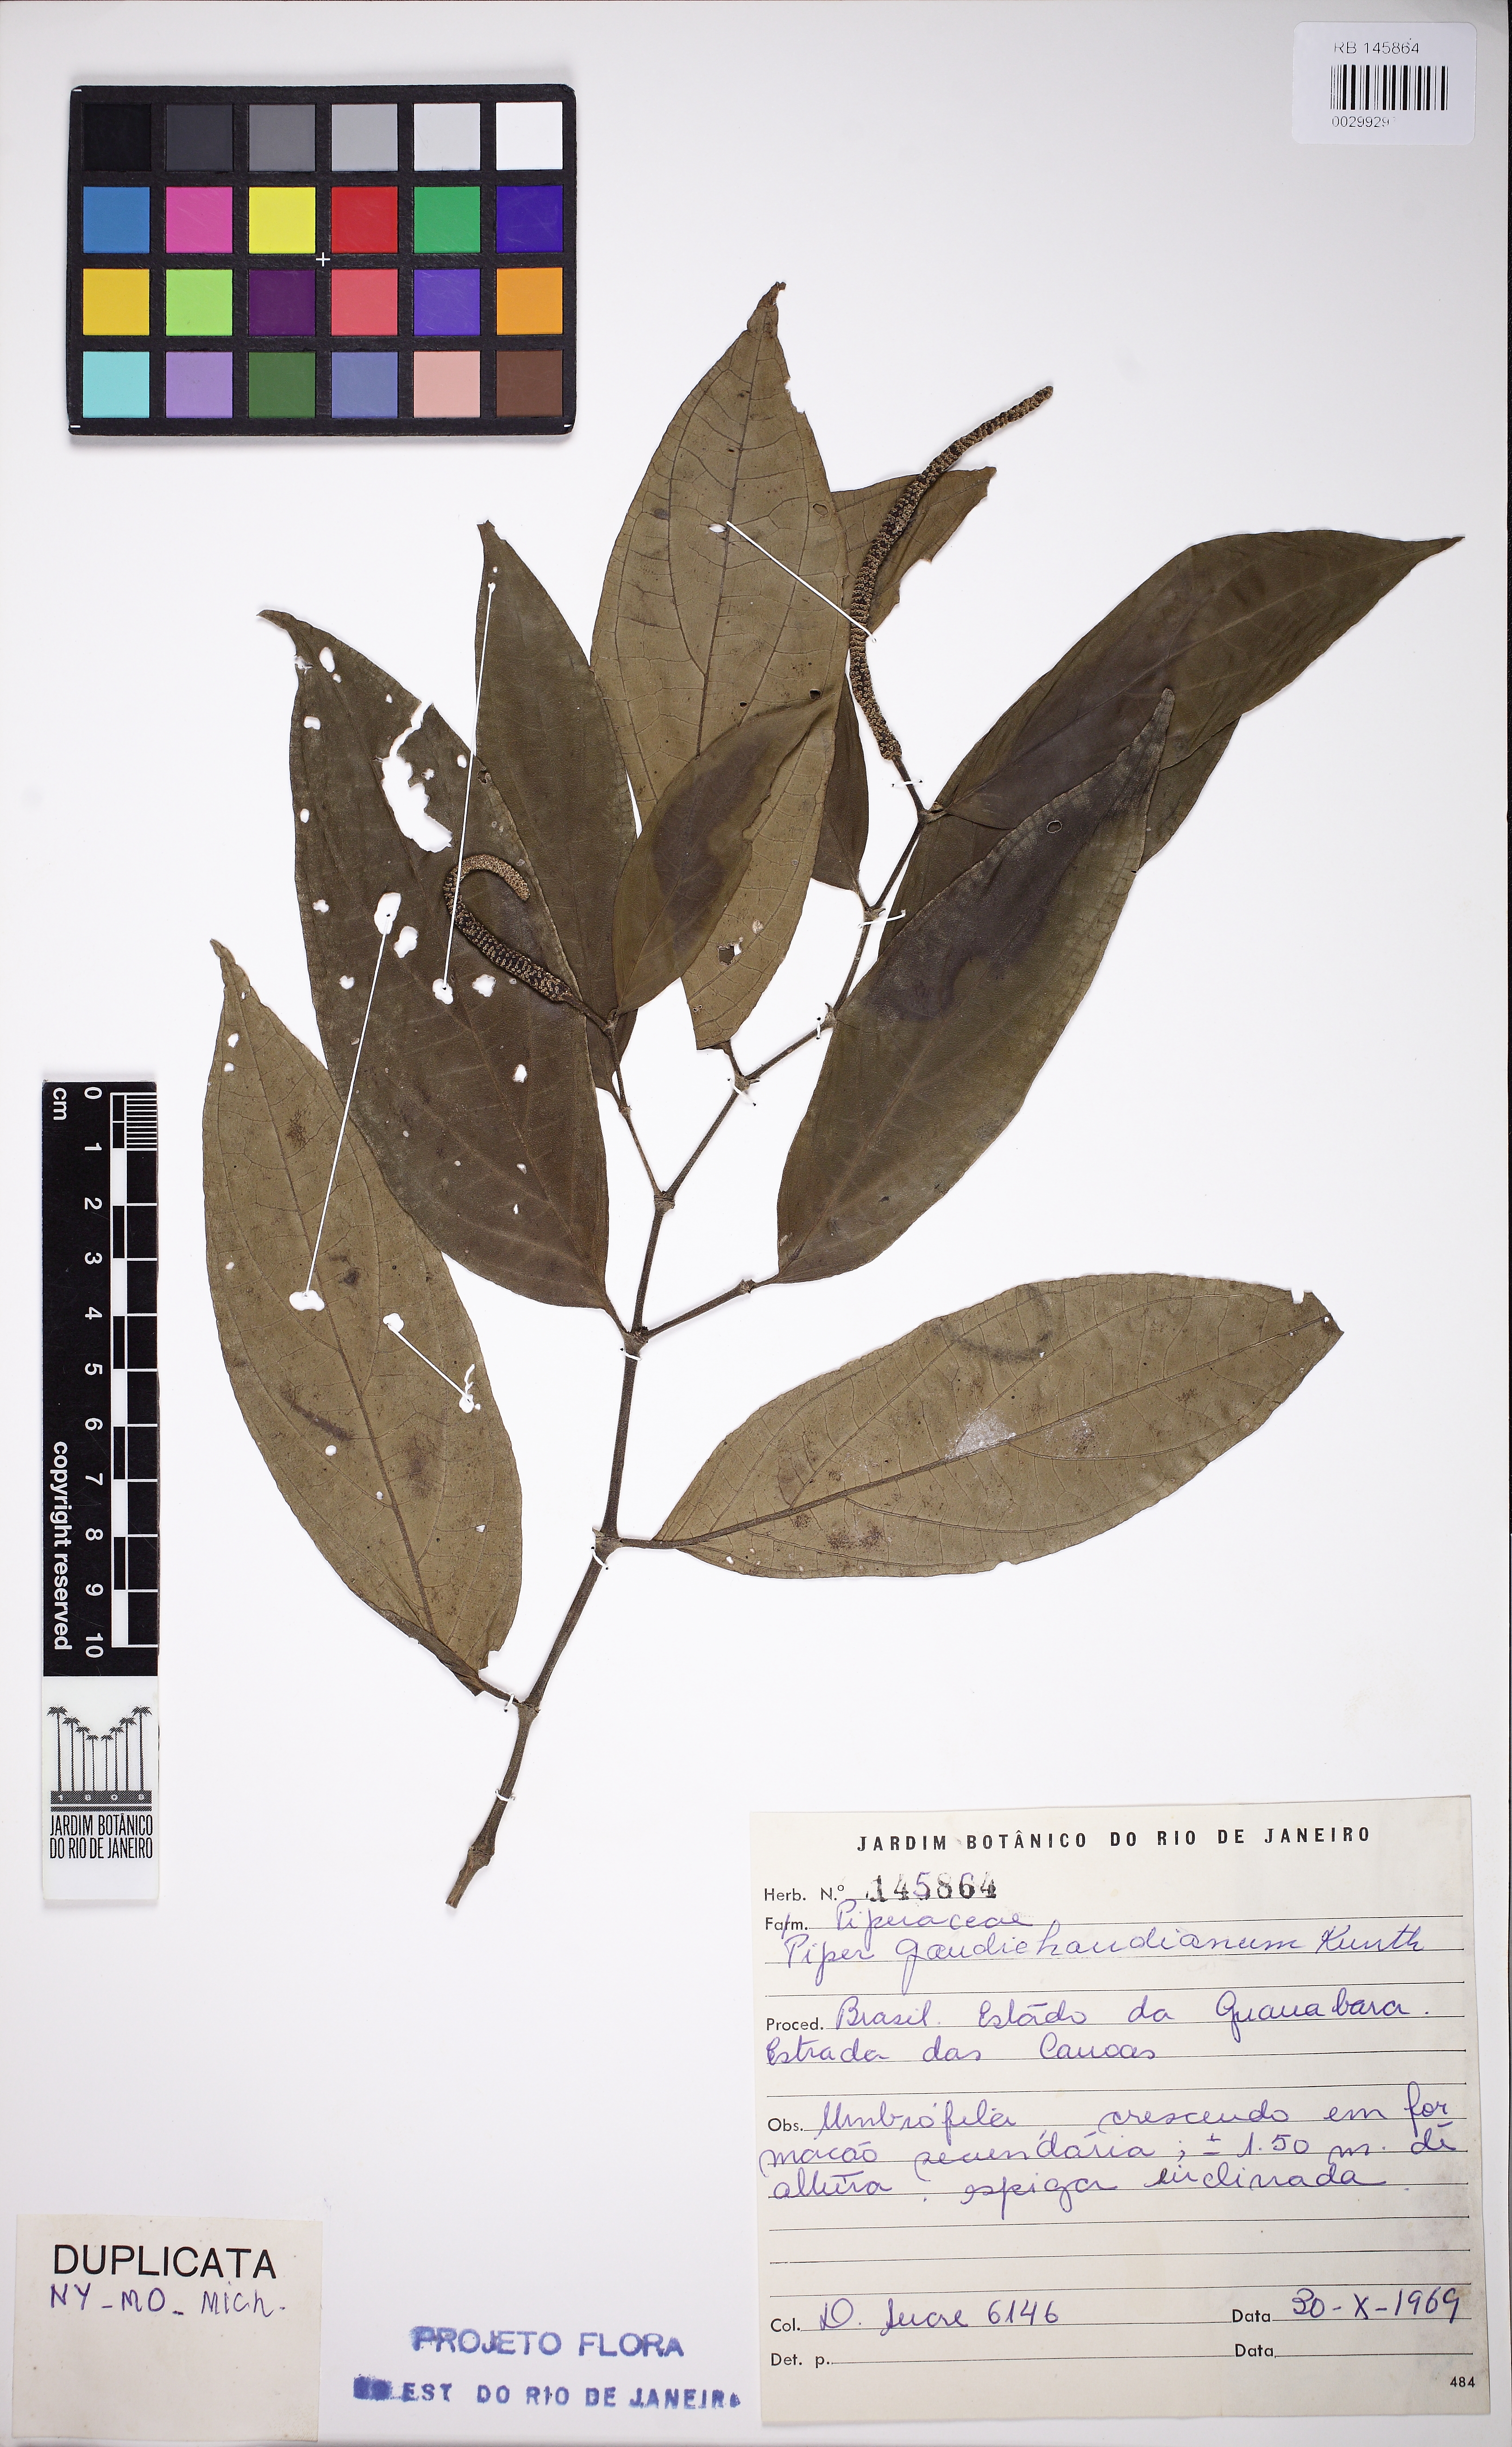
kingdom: Plantae
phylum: Tracheophyta
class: Magnoliopsida
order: Piperales
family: Piperaceae
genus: Piper
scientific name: Piper gaudichaudianum
